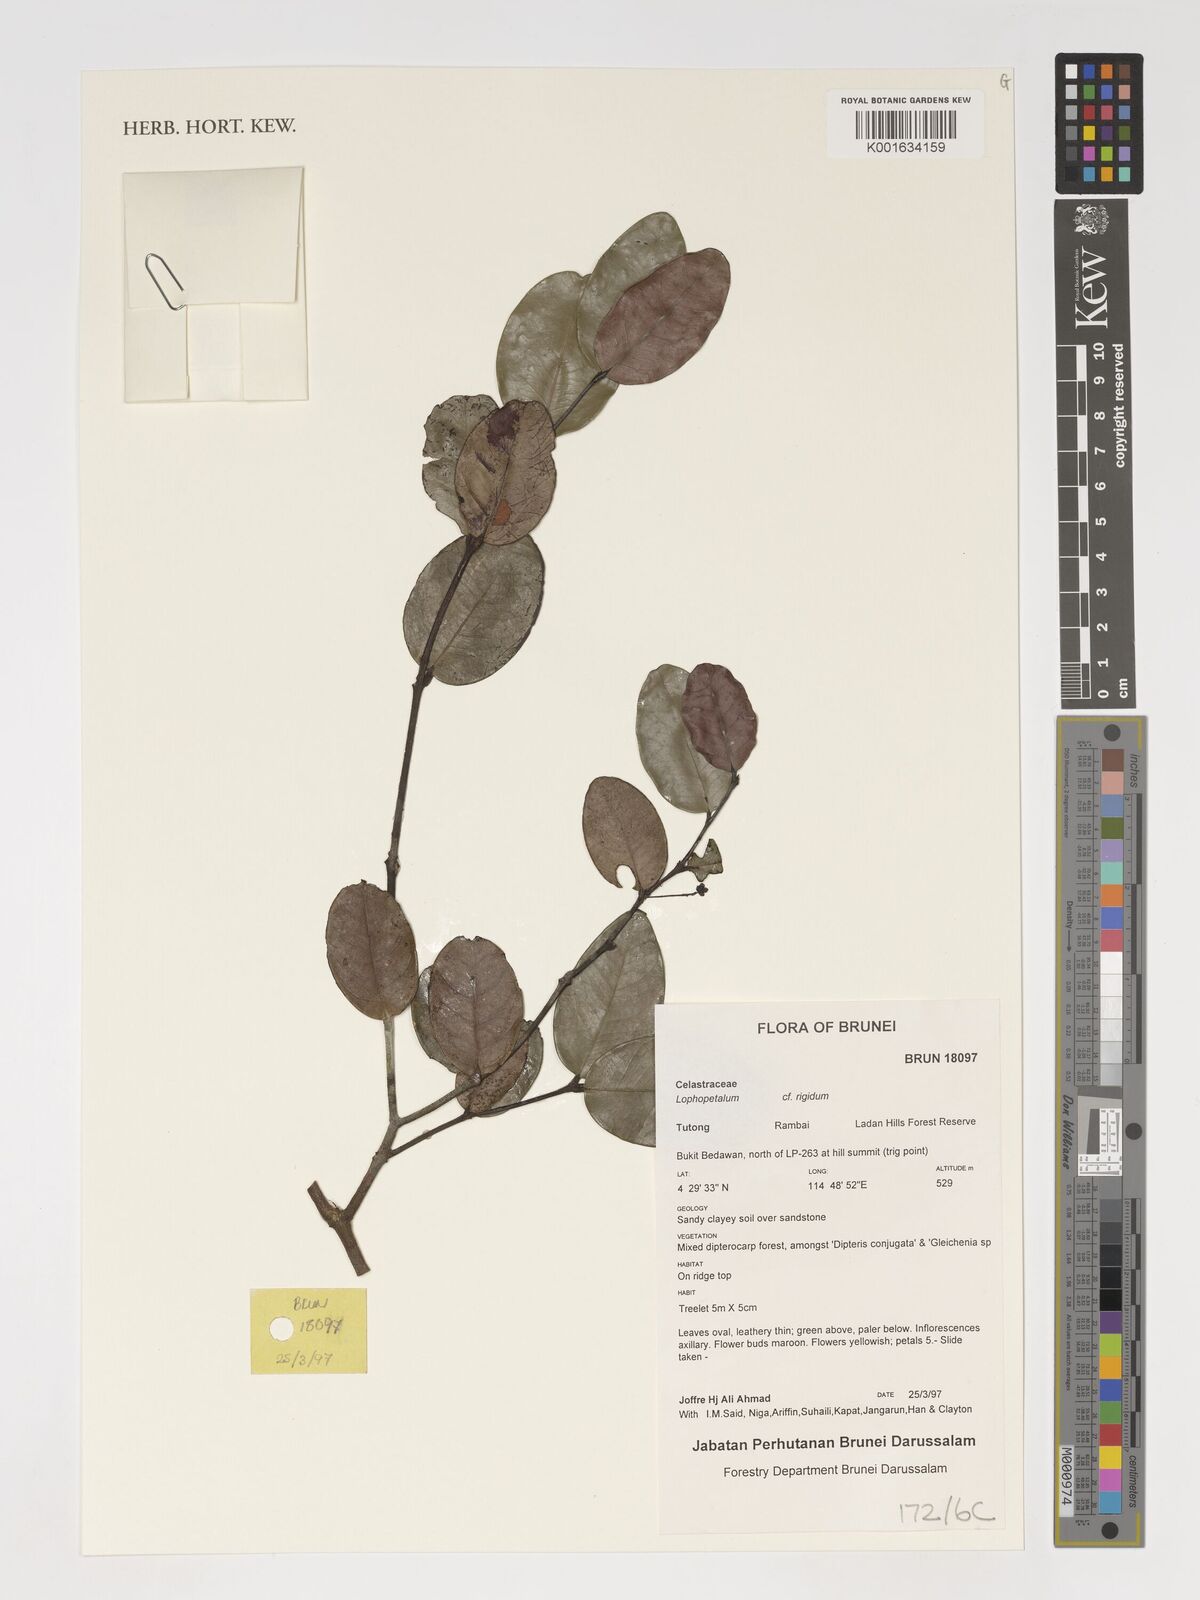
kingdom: Plantae
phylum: Tracheophyta
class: Magnoliopsida
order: Celastrales
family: Celastraceae
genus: Lophopetalum
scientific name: Lophopetalum rigidum
